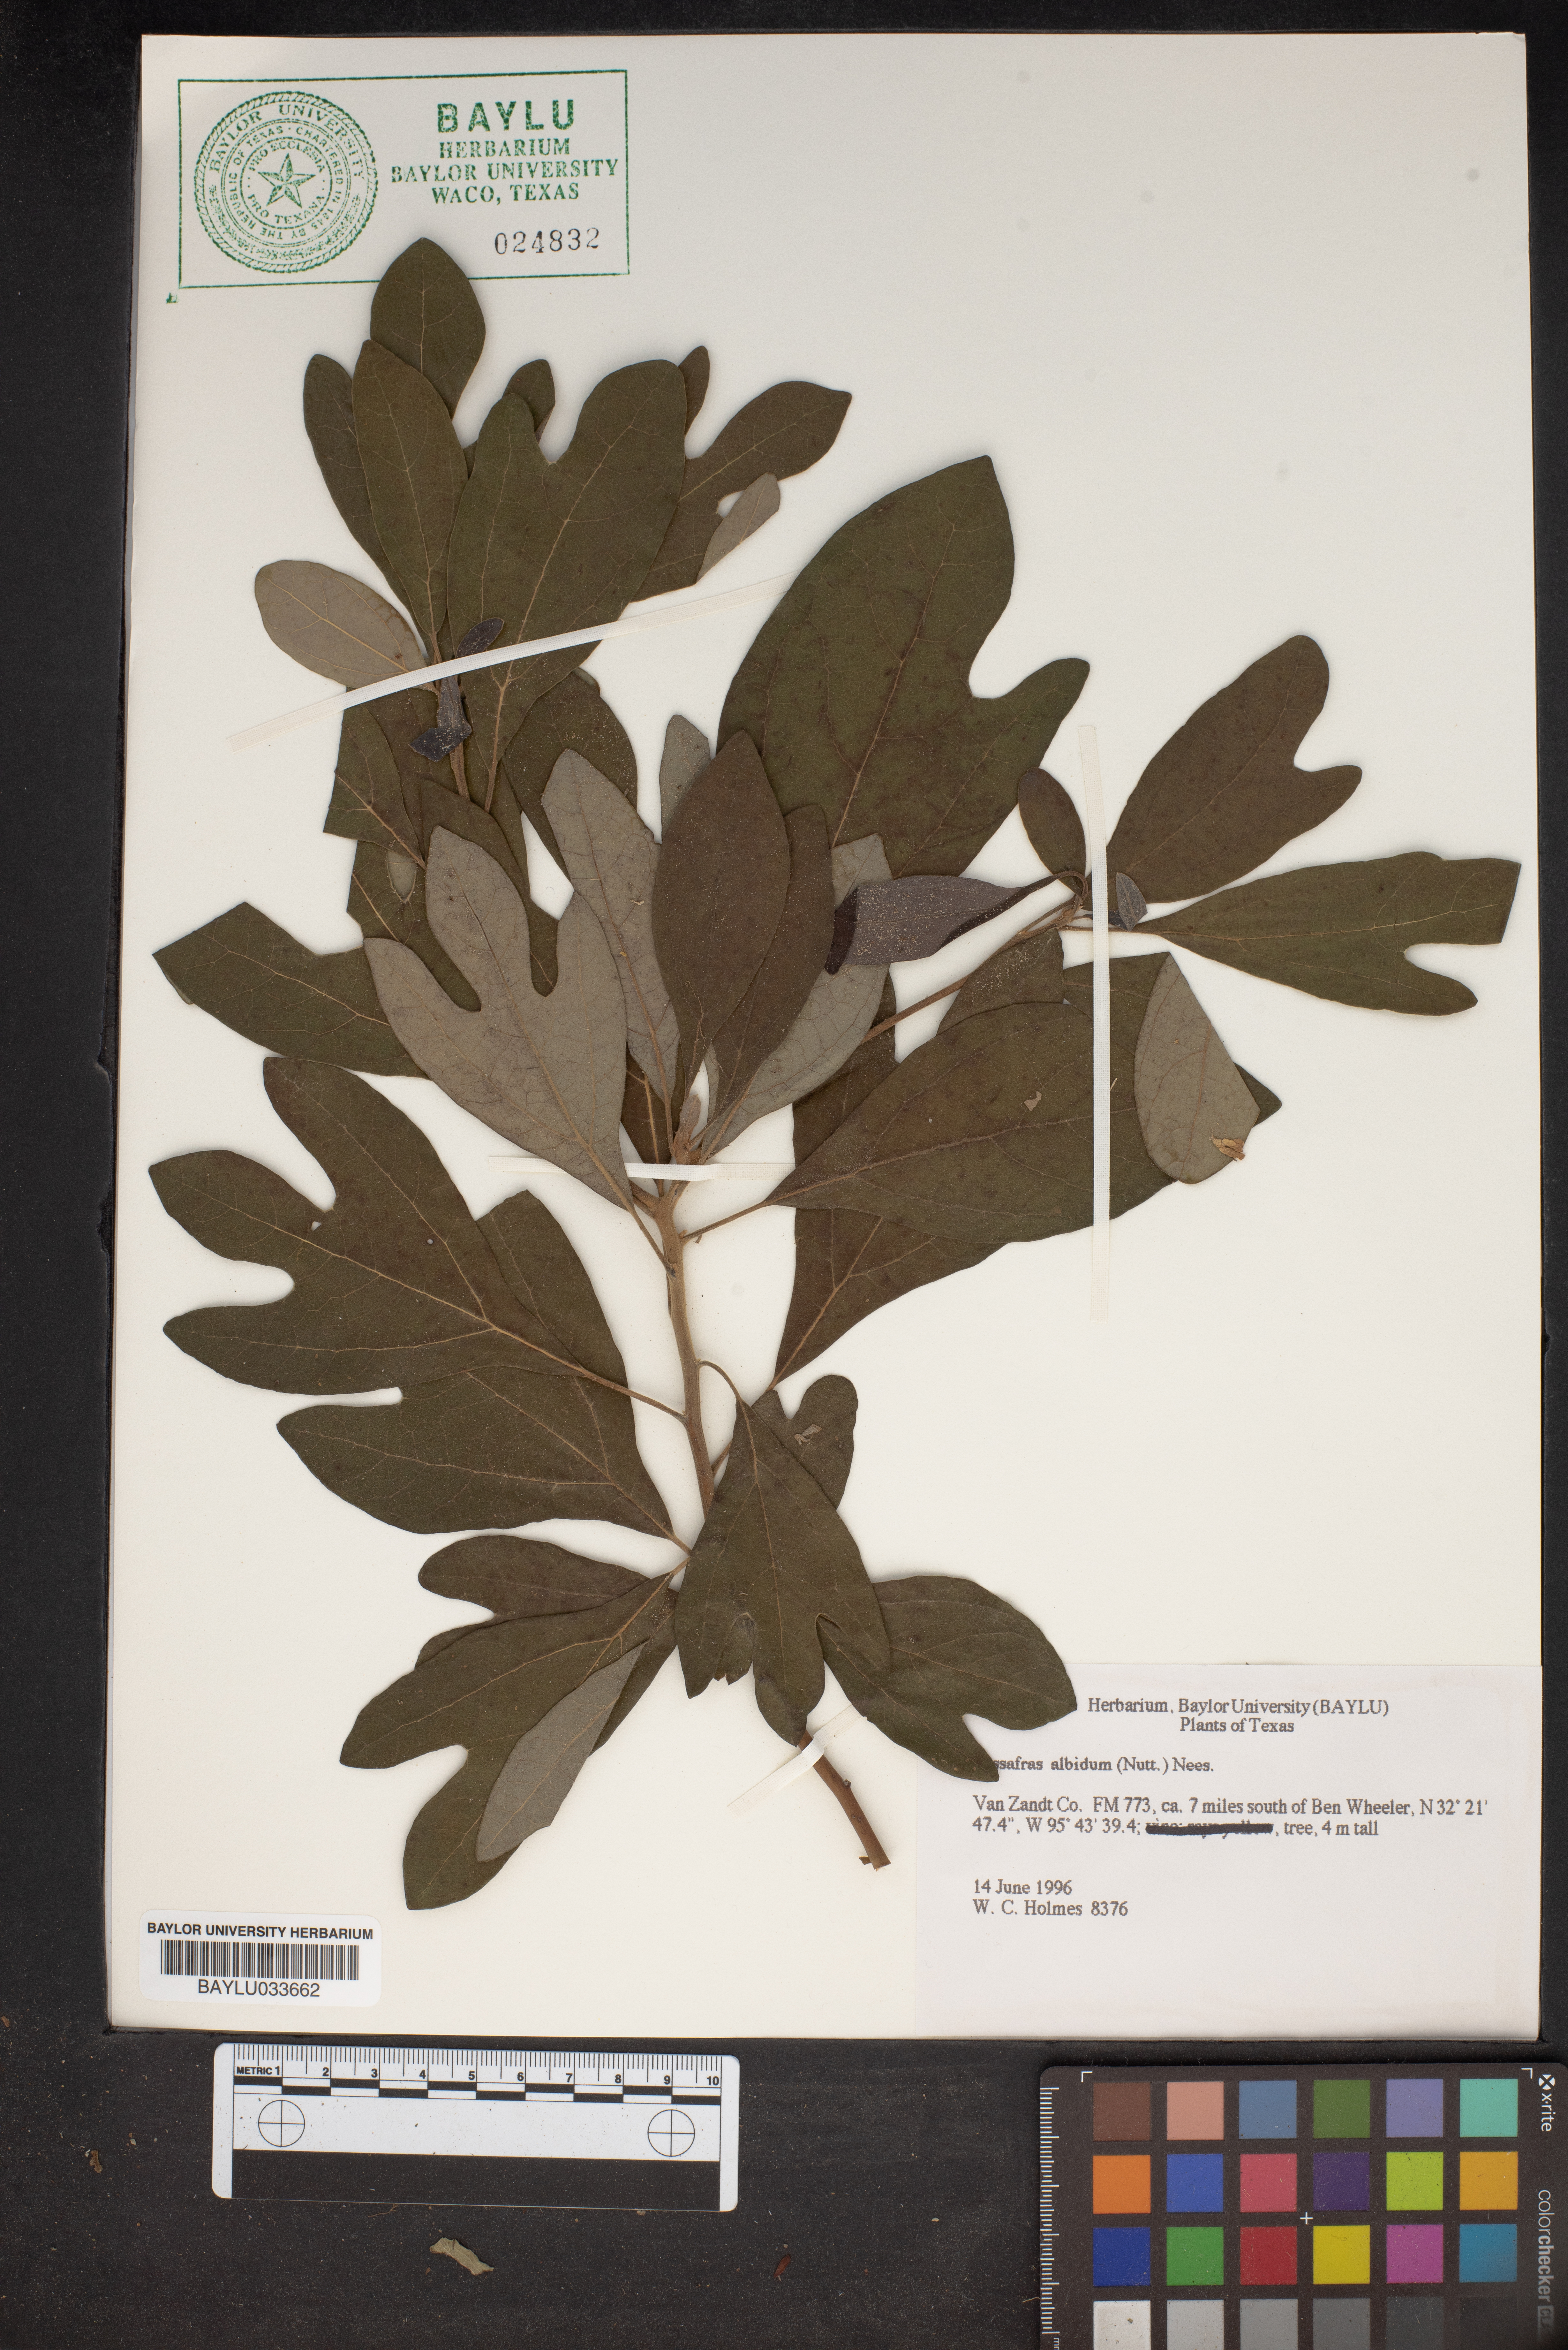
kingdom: Plantae
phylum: Tracheophyta
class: Magnoliopsida
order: Laurales
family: Lauraceae
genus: Sassafras
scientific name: Sassafras albidum
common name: Sassafras
